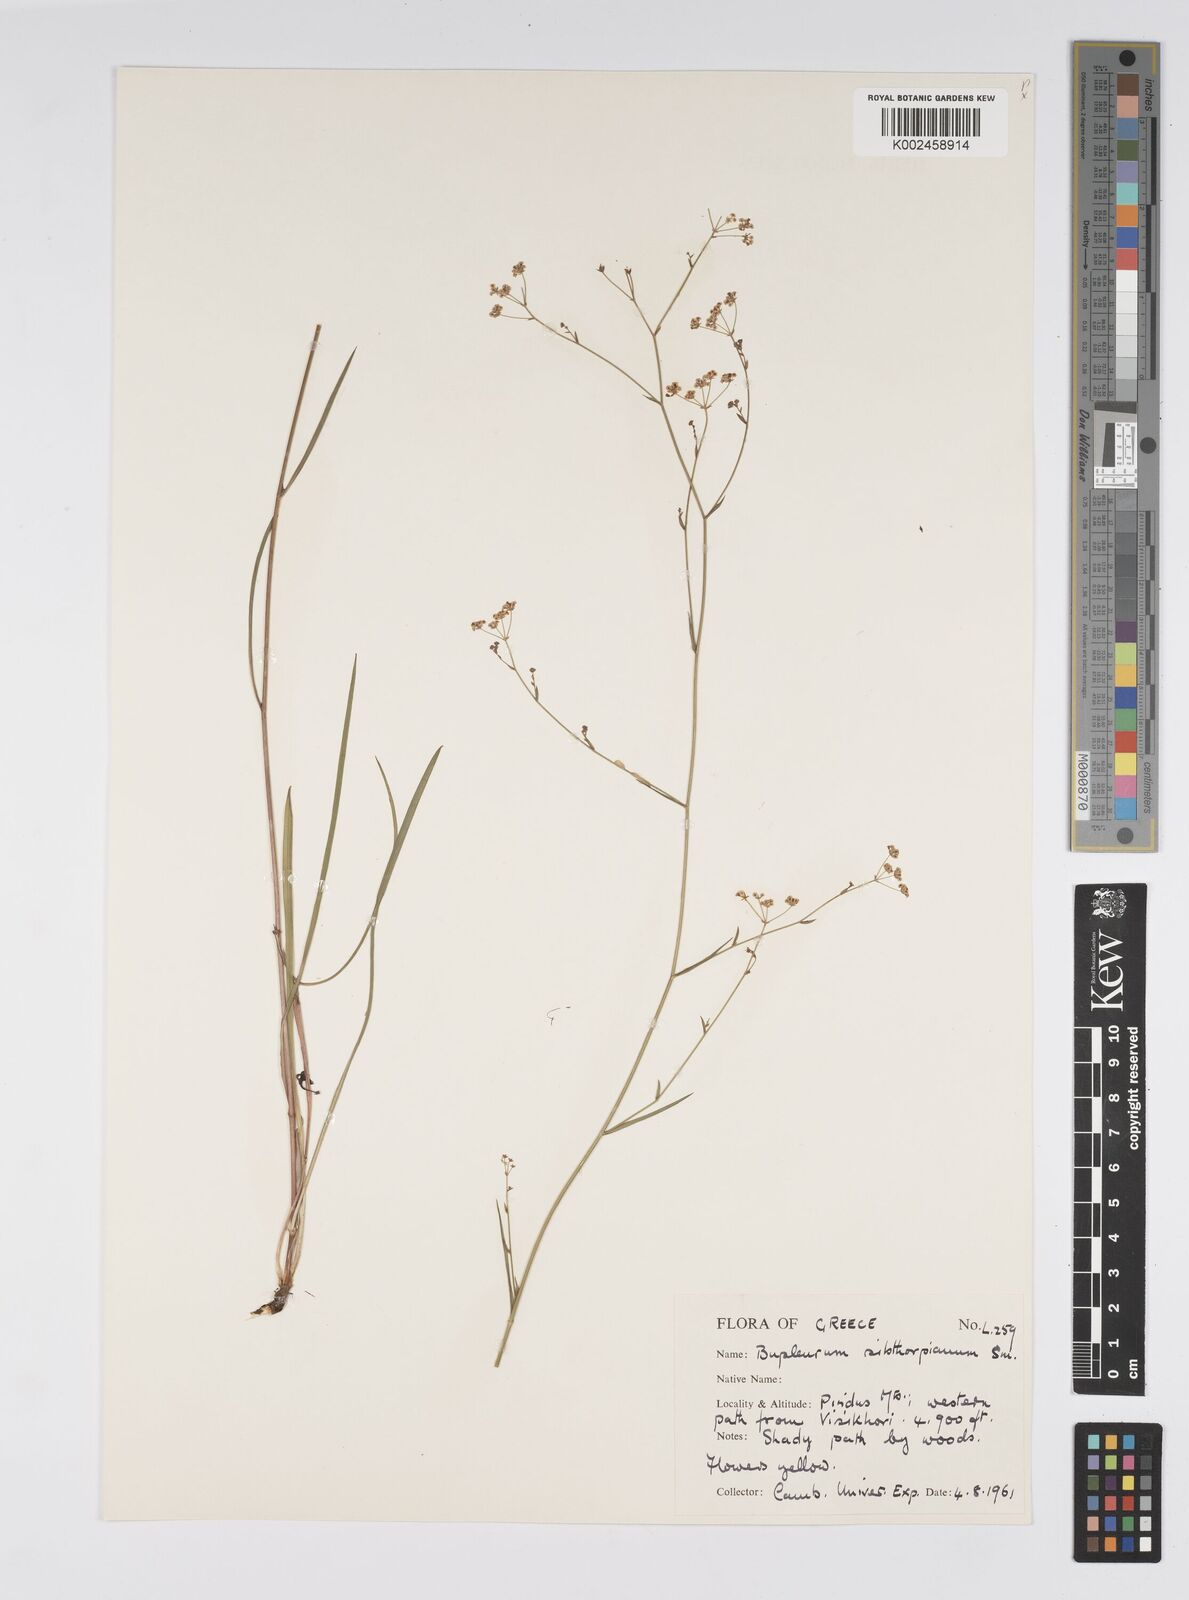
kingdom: Plantae
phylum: Tracheophyta
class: Magnoliopsida
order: Apiales
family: Apiaceae
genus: Bupleurum
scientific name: Bupleurum falcatum
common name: Sickle-leaved hare's-ear
